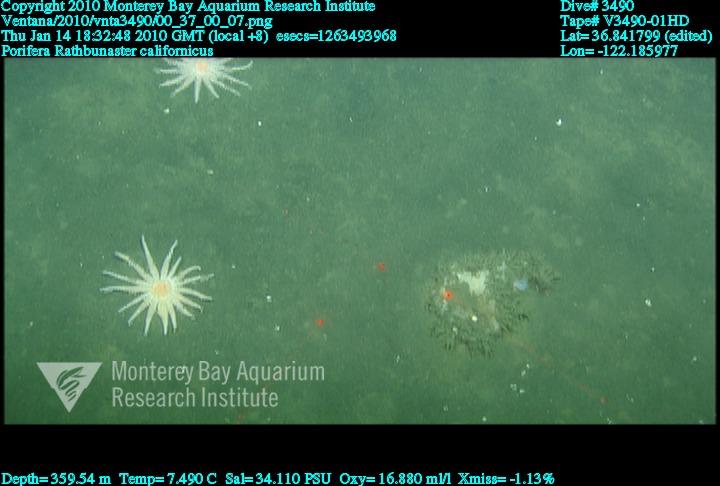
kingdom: Animalia
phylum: Porifera
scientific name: Porifera
